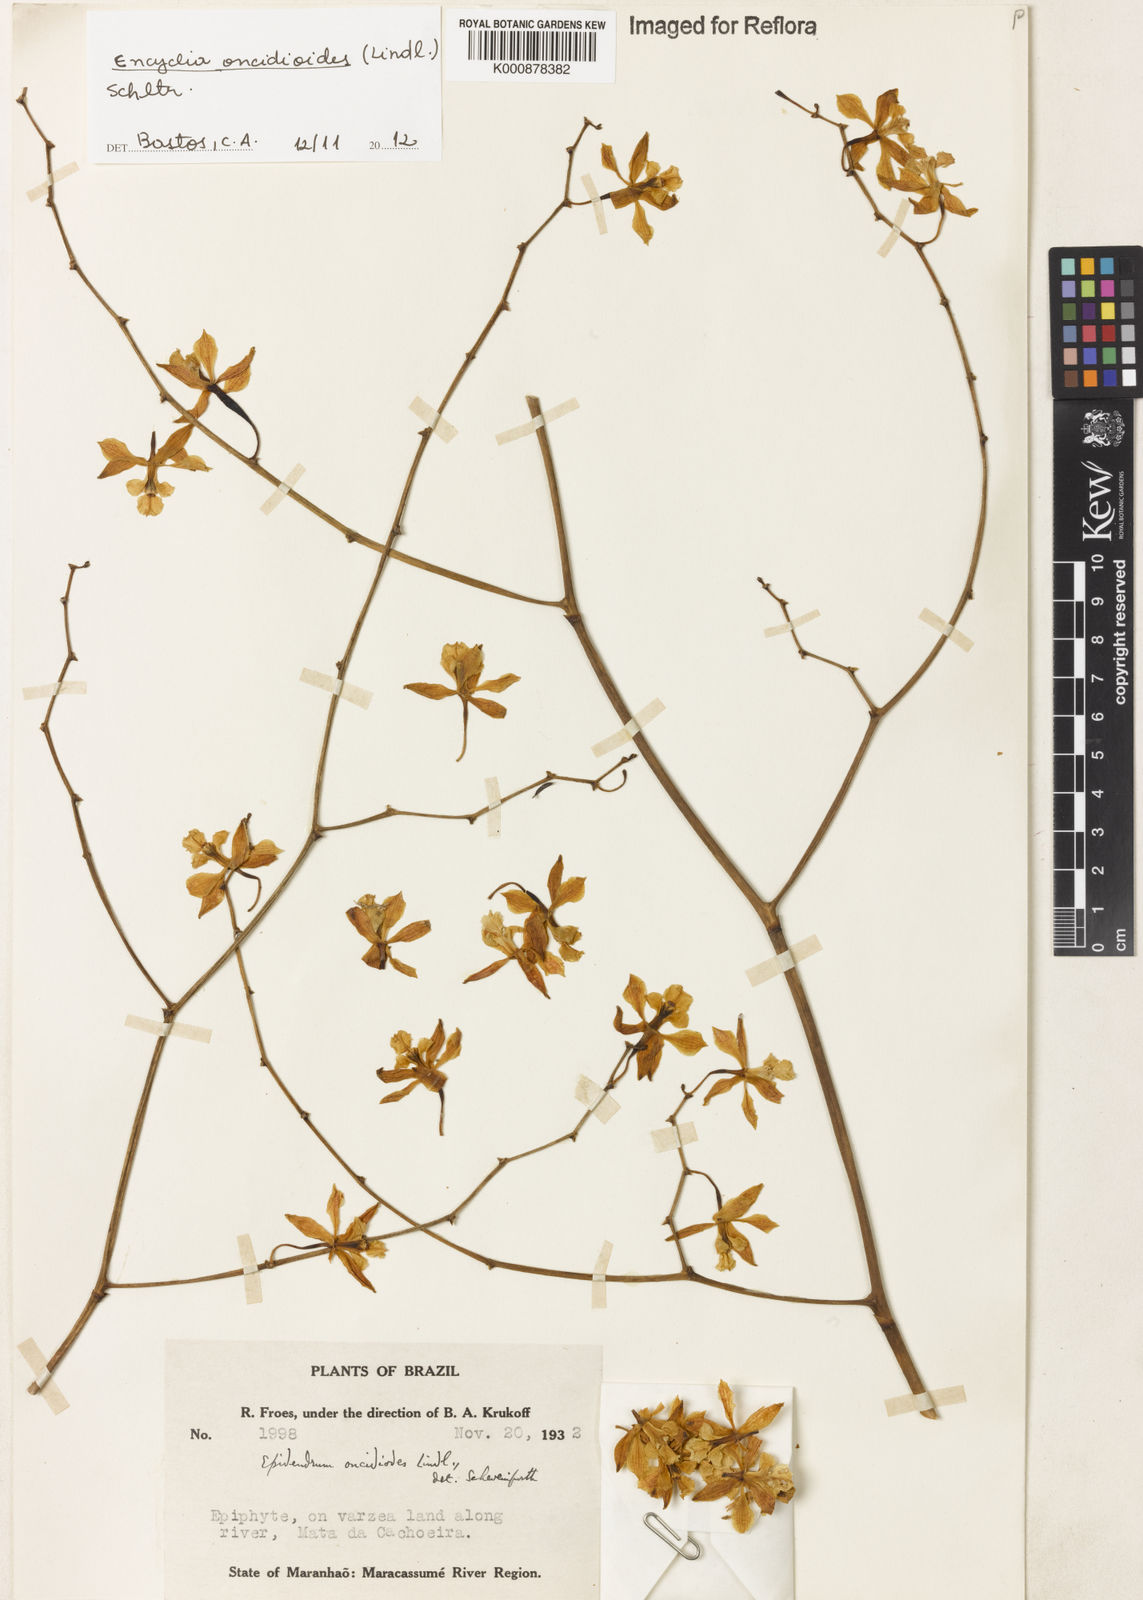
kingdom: Plantae
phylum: Tracheophyta
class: Liliopsida
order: Asparagales
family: Orchidaceae
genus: Encyclia
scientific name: Encyclia oncidioides
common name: Heavyfruit butterfly orchid
